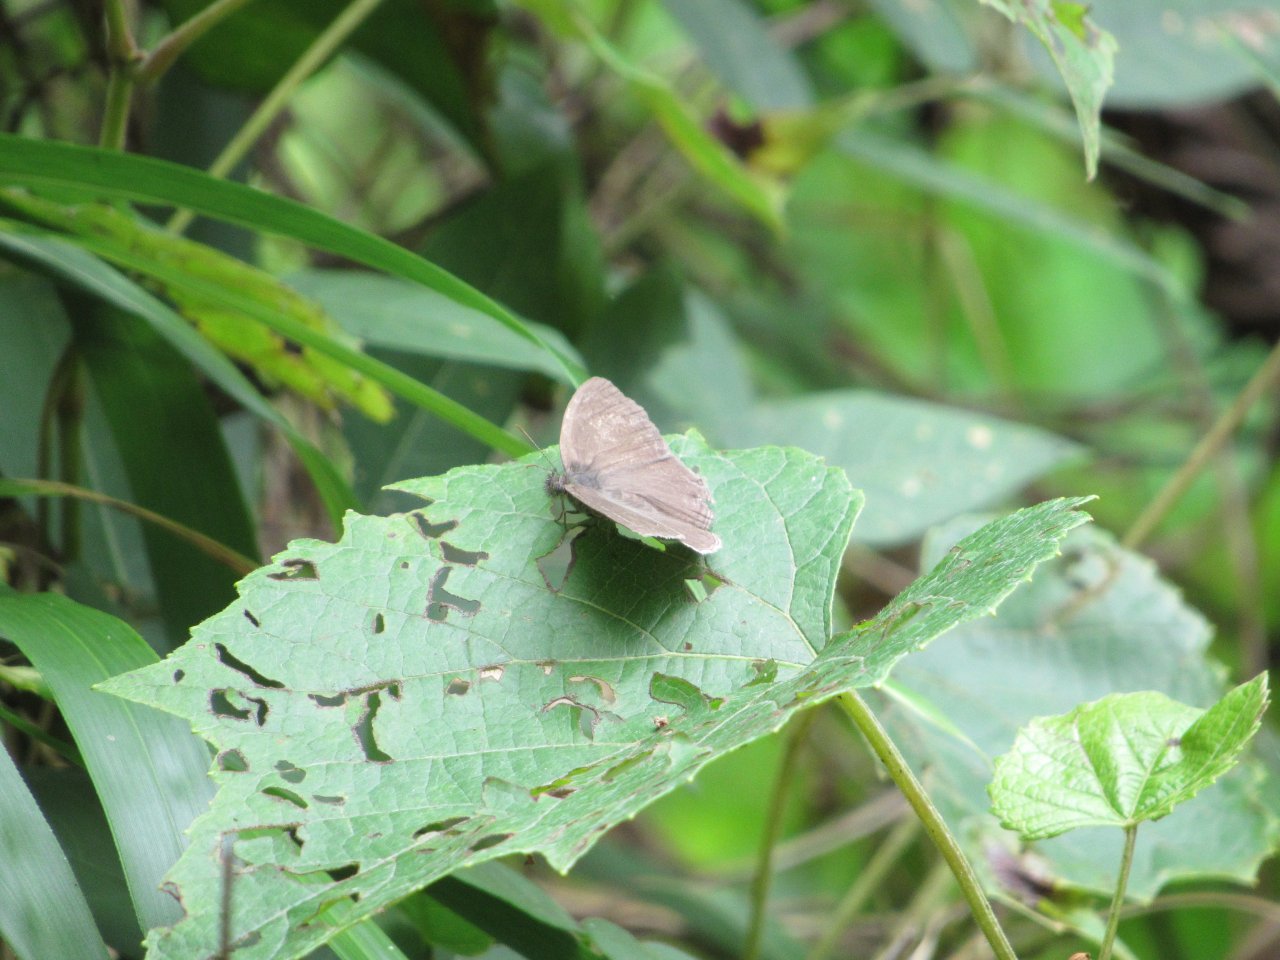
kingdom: Animalia
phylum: Arthropoda
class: Insecta
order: Lepidoptera
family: Nymphalidae
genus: Hermeuptychia
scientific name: Hermeuptychia hermes
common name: Carolina Satyr
